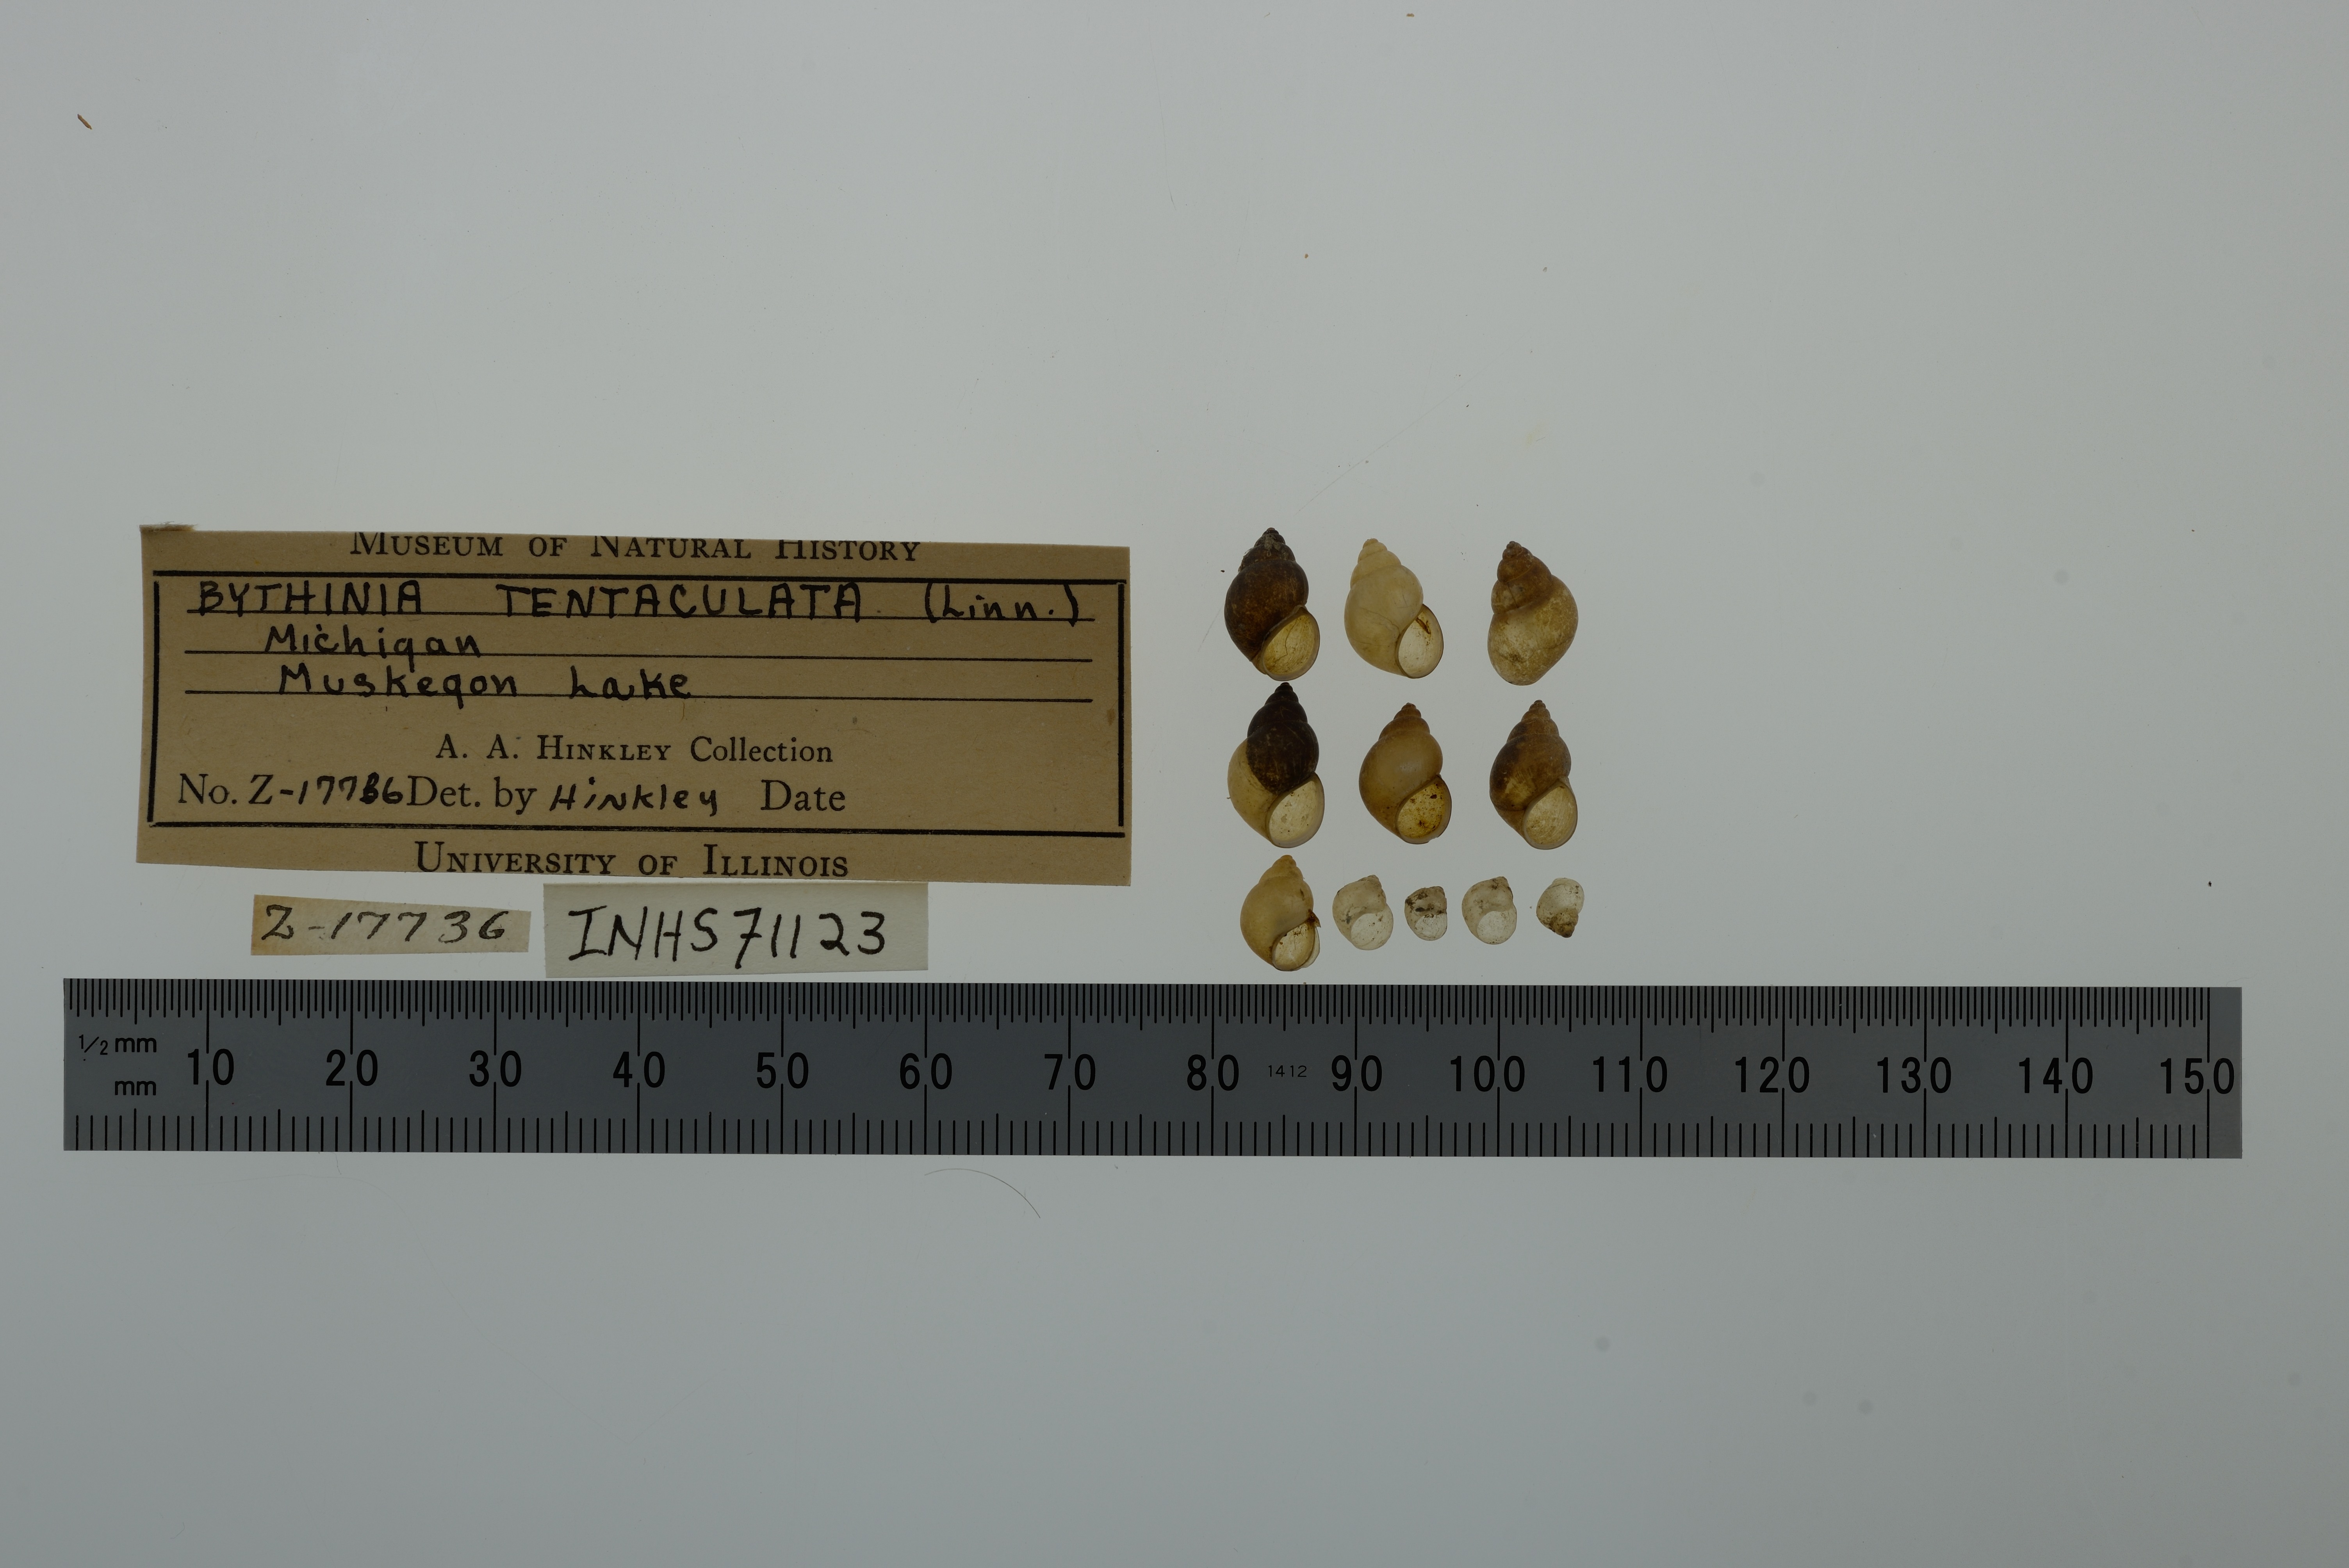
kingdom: Animalia
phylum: Mollusca
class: Gastropoda
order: Littorinimorpha
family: Bithyniidae
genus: Bithynia
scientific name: Bithynia tentaculata
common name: Common bithynia
